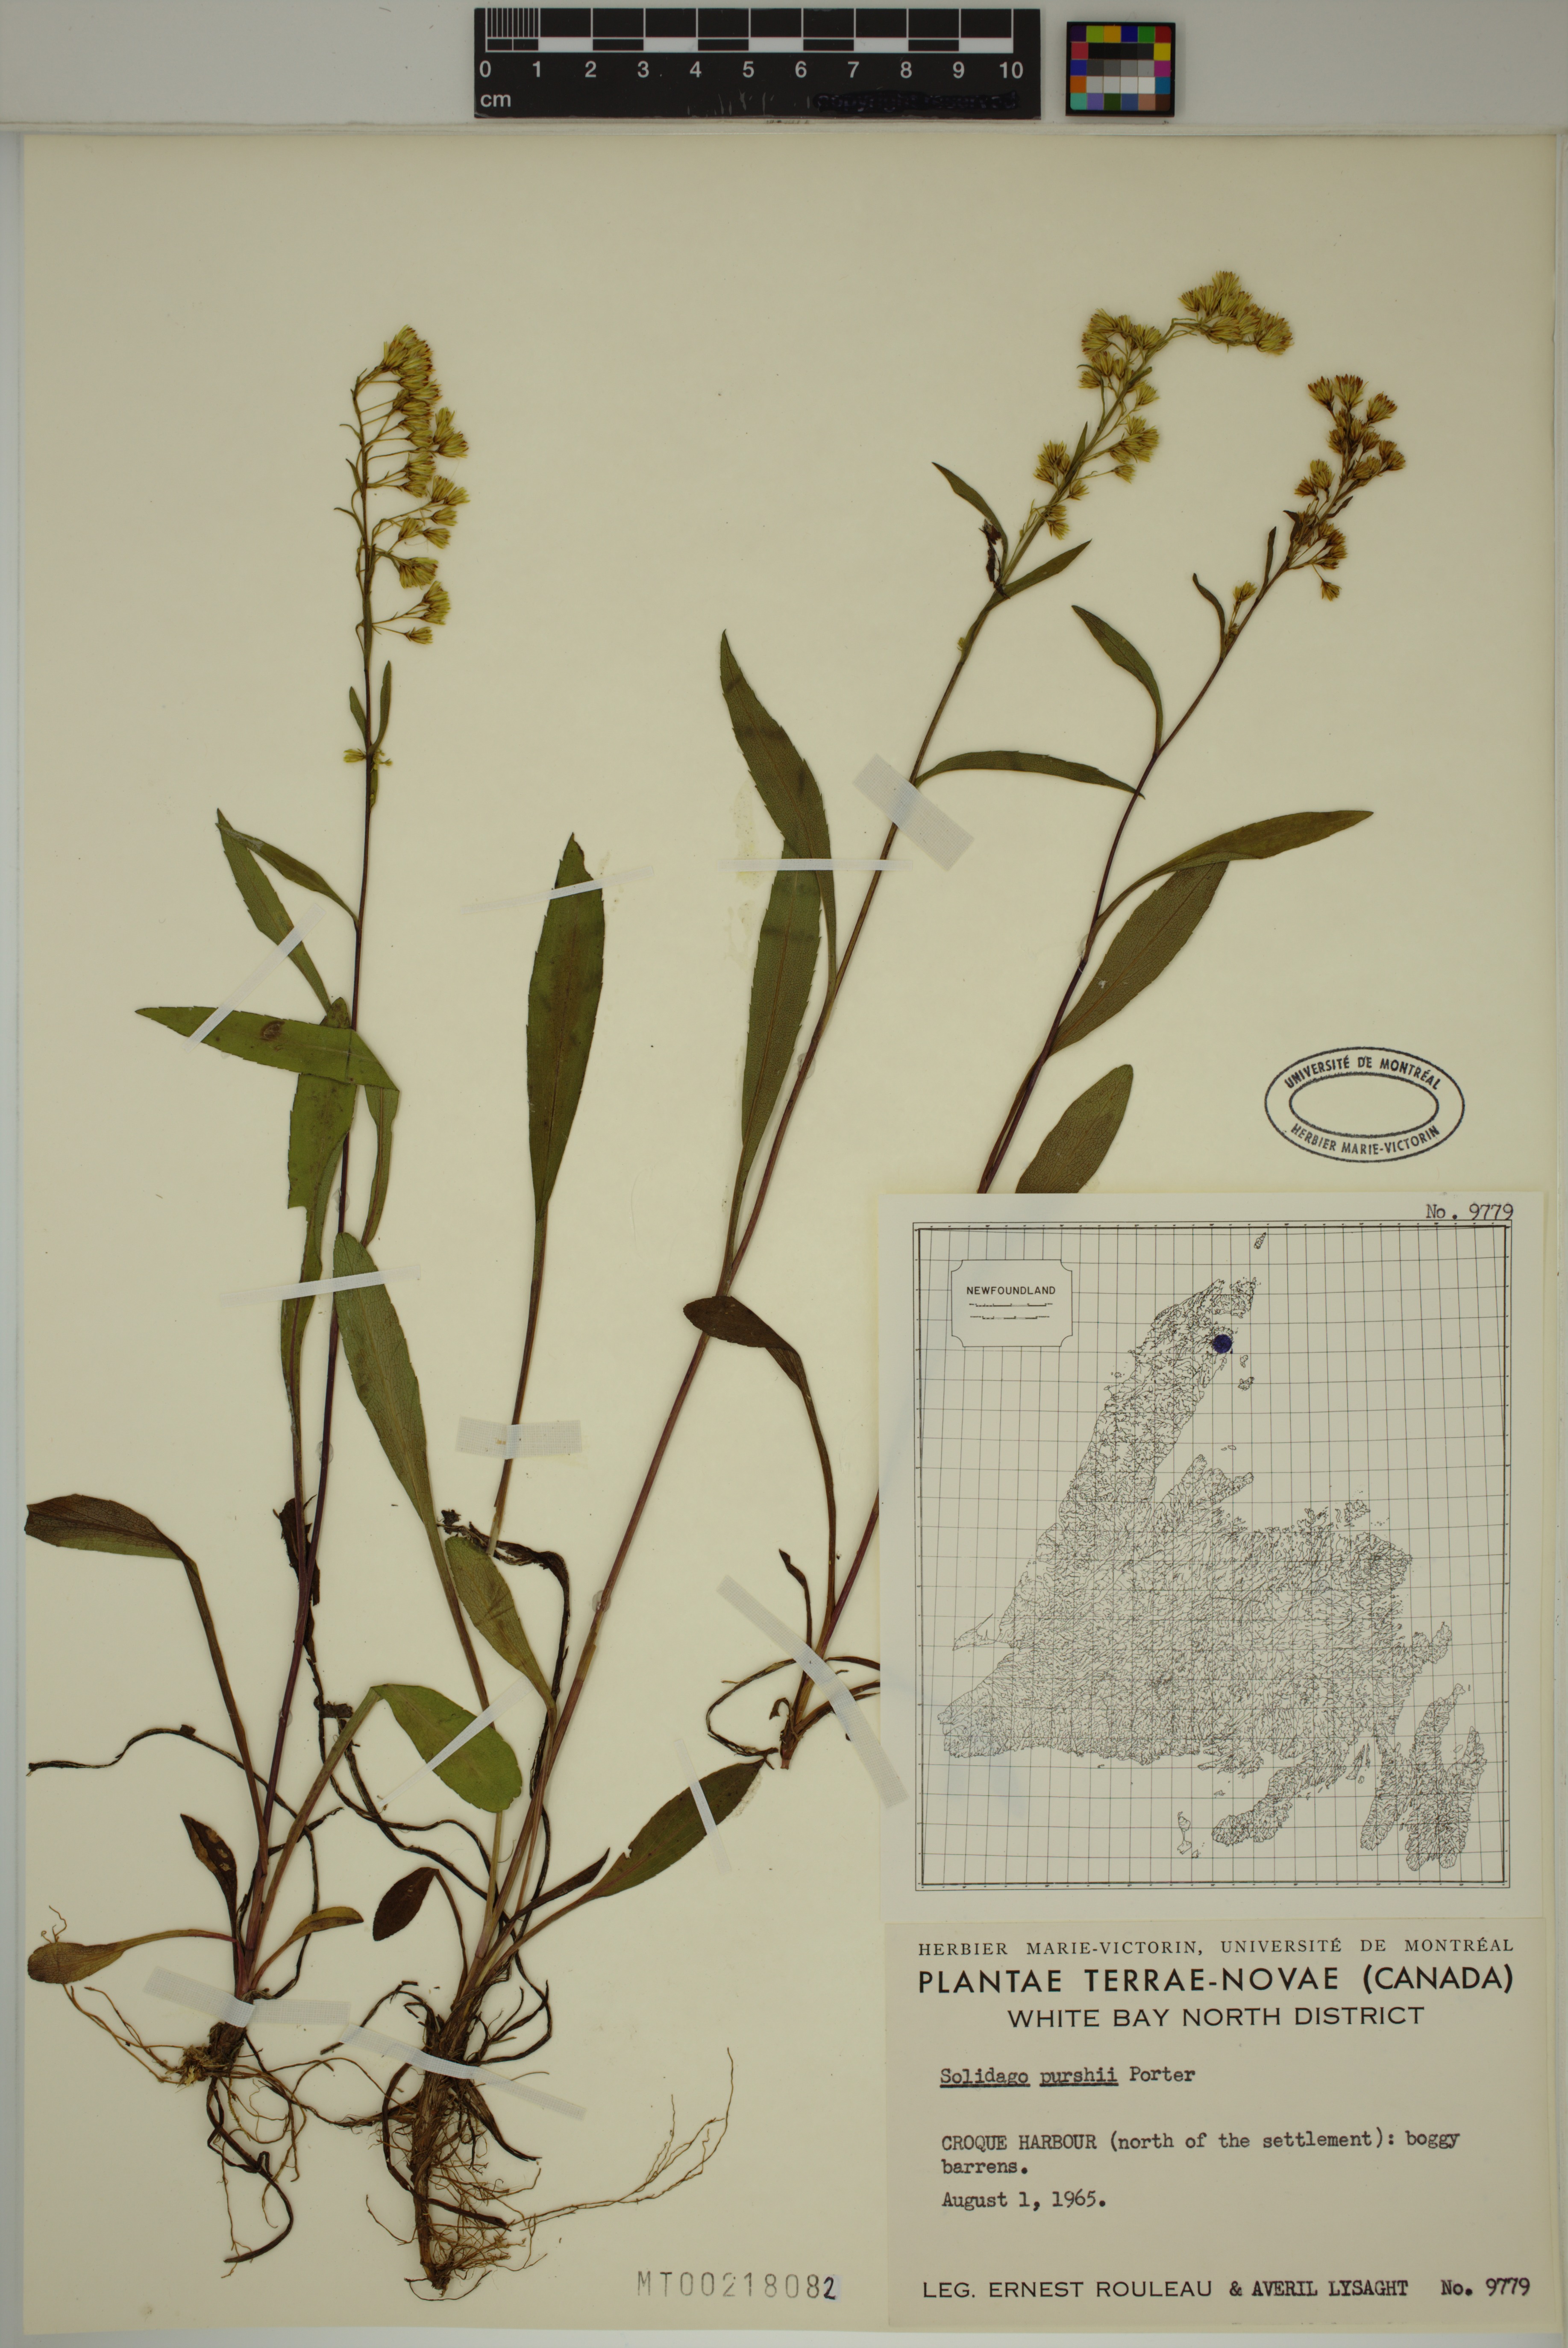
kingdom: Plantae
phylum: Tracheophyta
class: Magnoliopsida
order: Asterales
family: Asteraceae
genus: Solidago
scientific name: Solidago uliginosa
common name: Bog goldenrod
